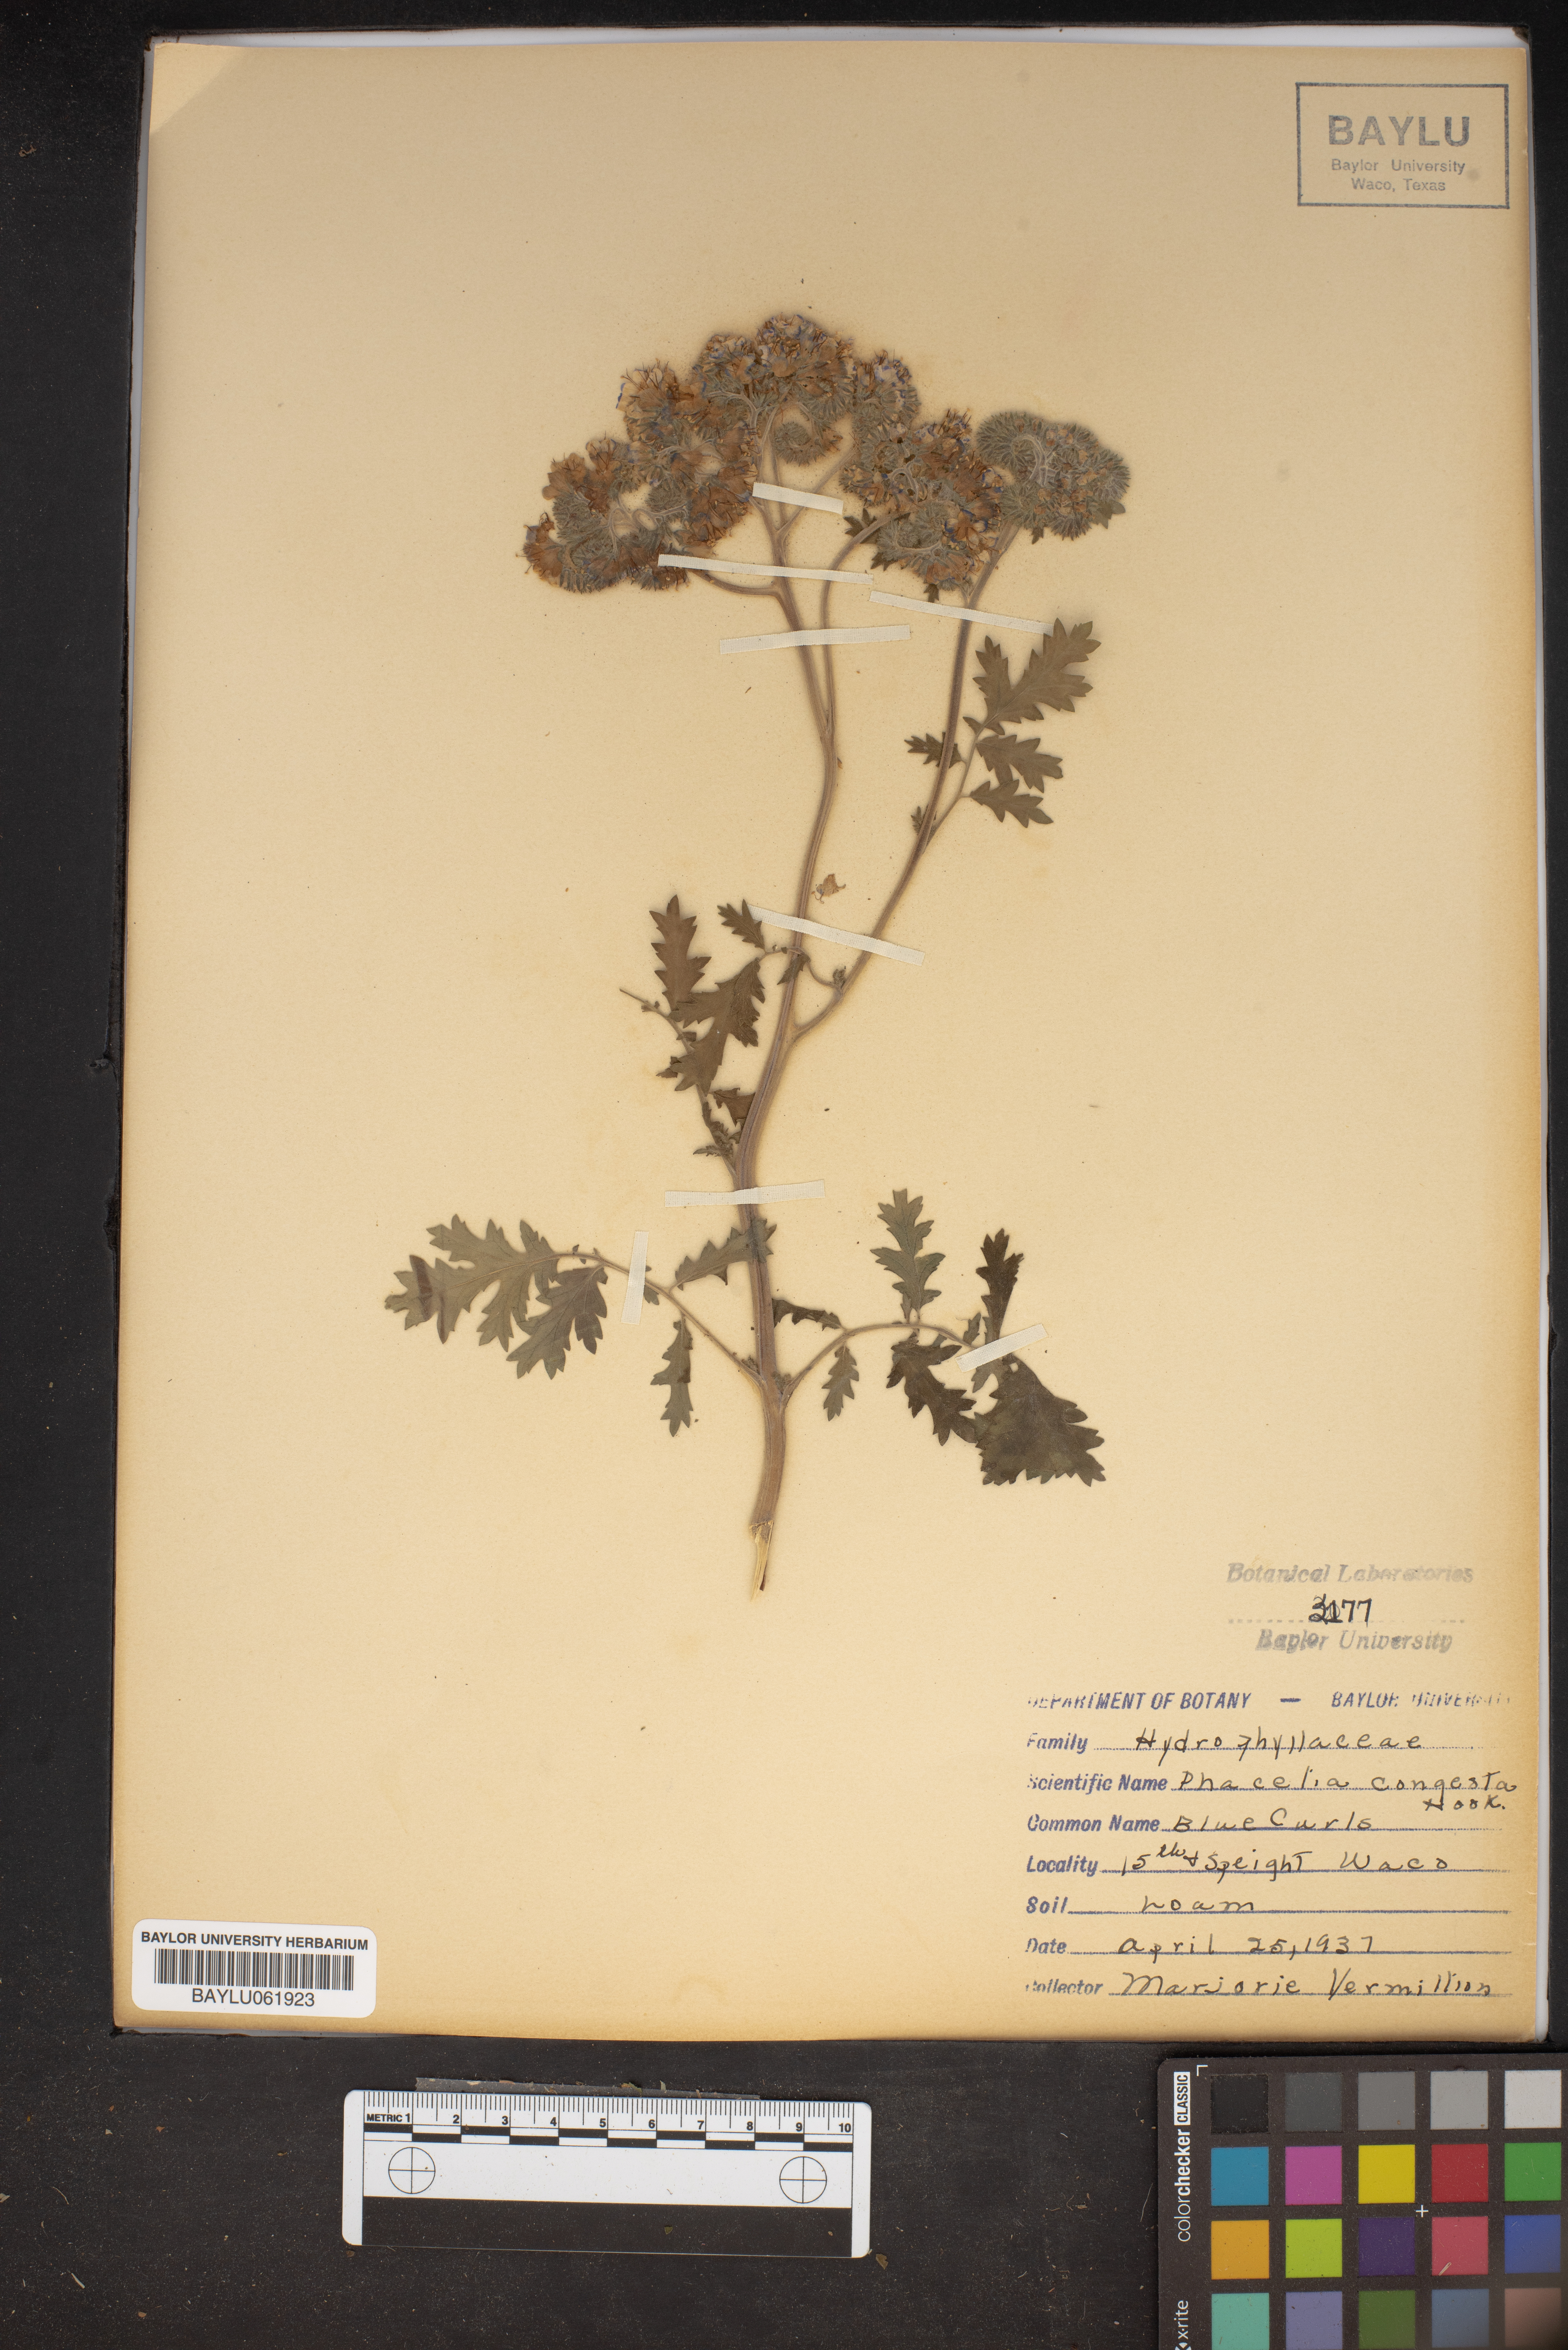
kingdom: Plantae
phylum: Tracheophyta
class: Magnoliopsida
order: Boraginales
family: Hydrophyllaceae
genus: Phacelia
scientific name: Phacelia congesta
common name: Blue curls
